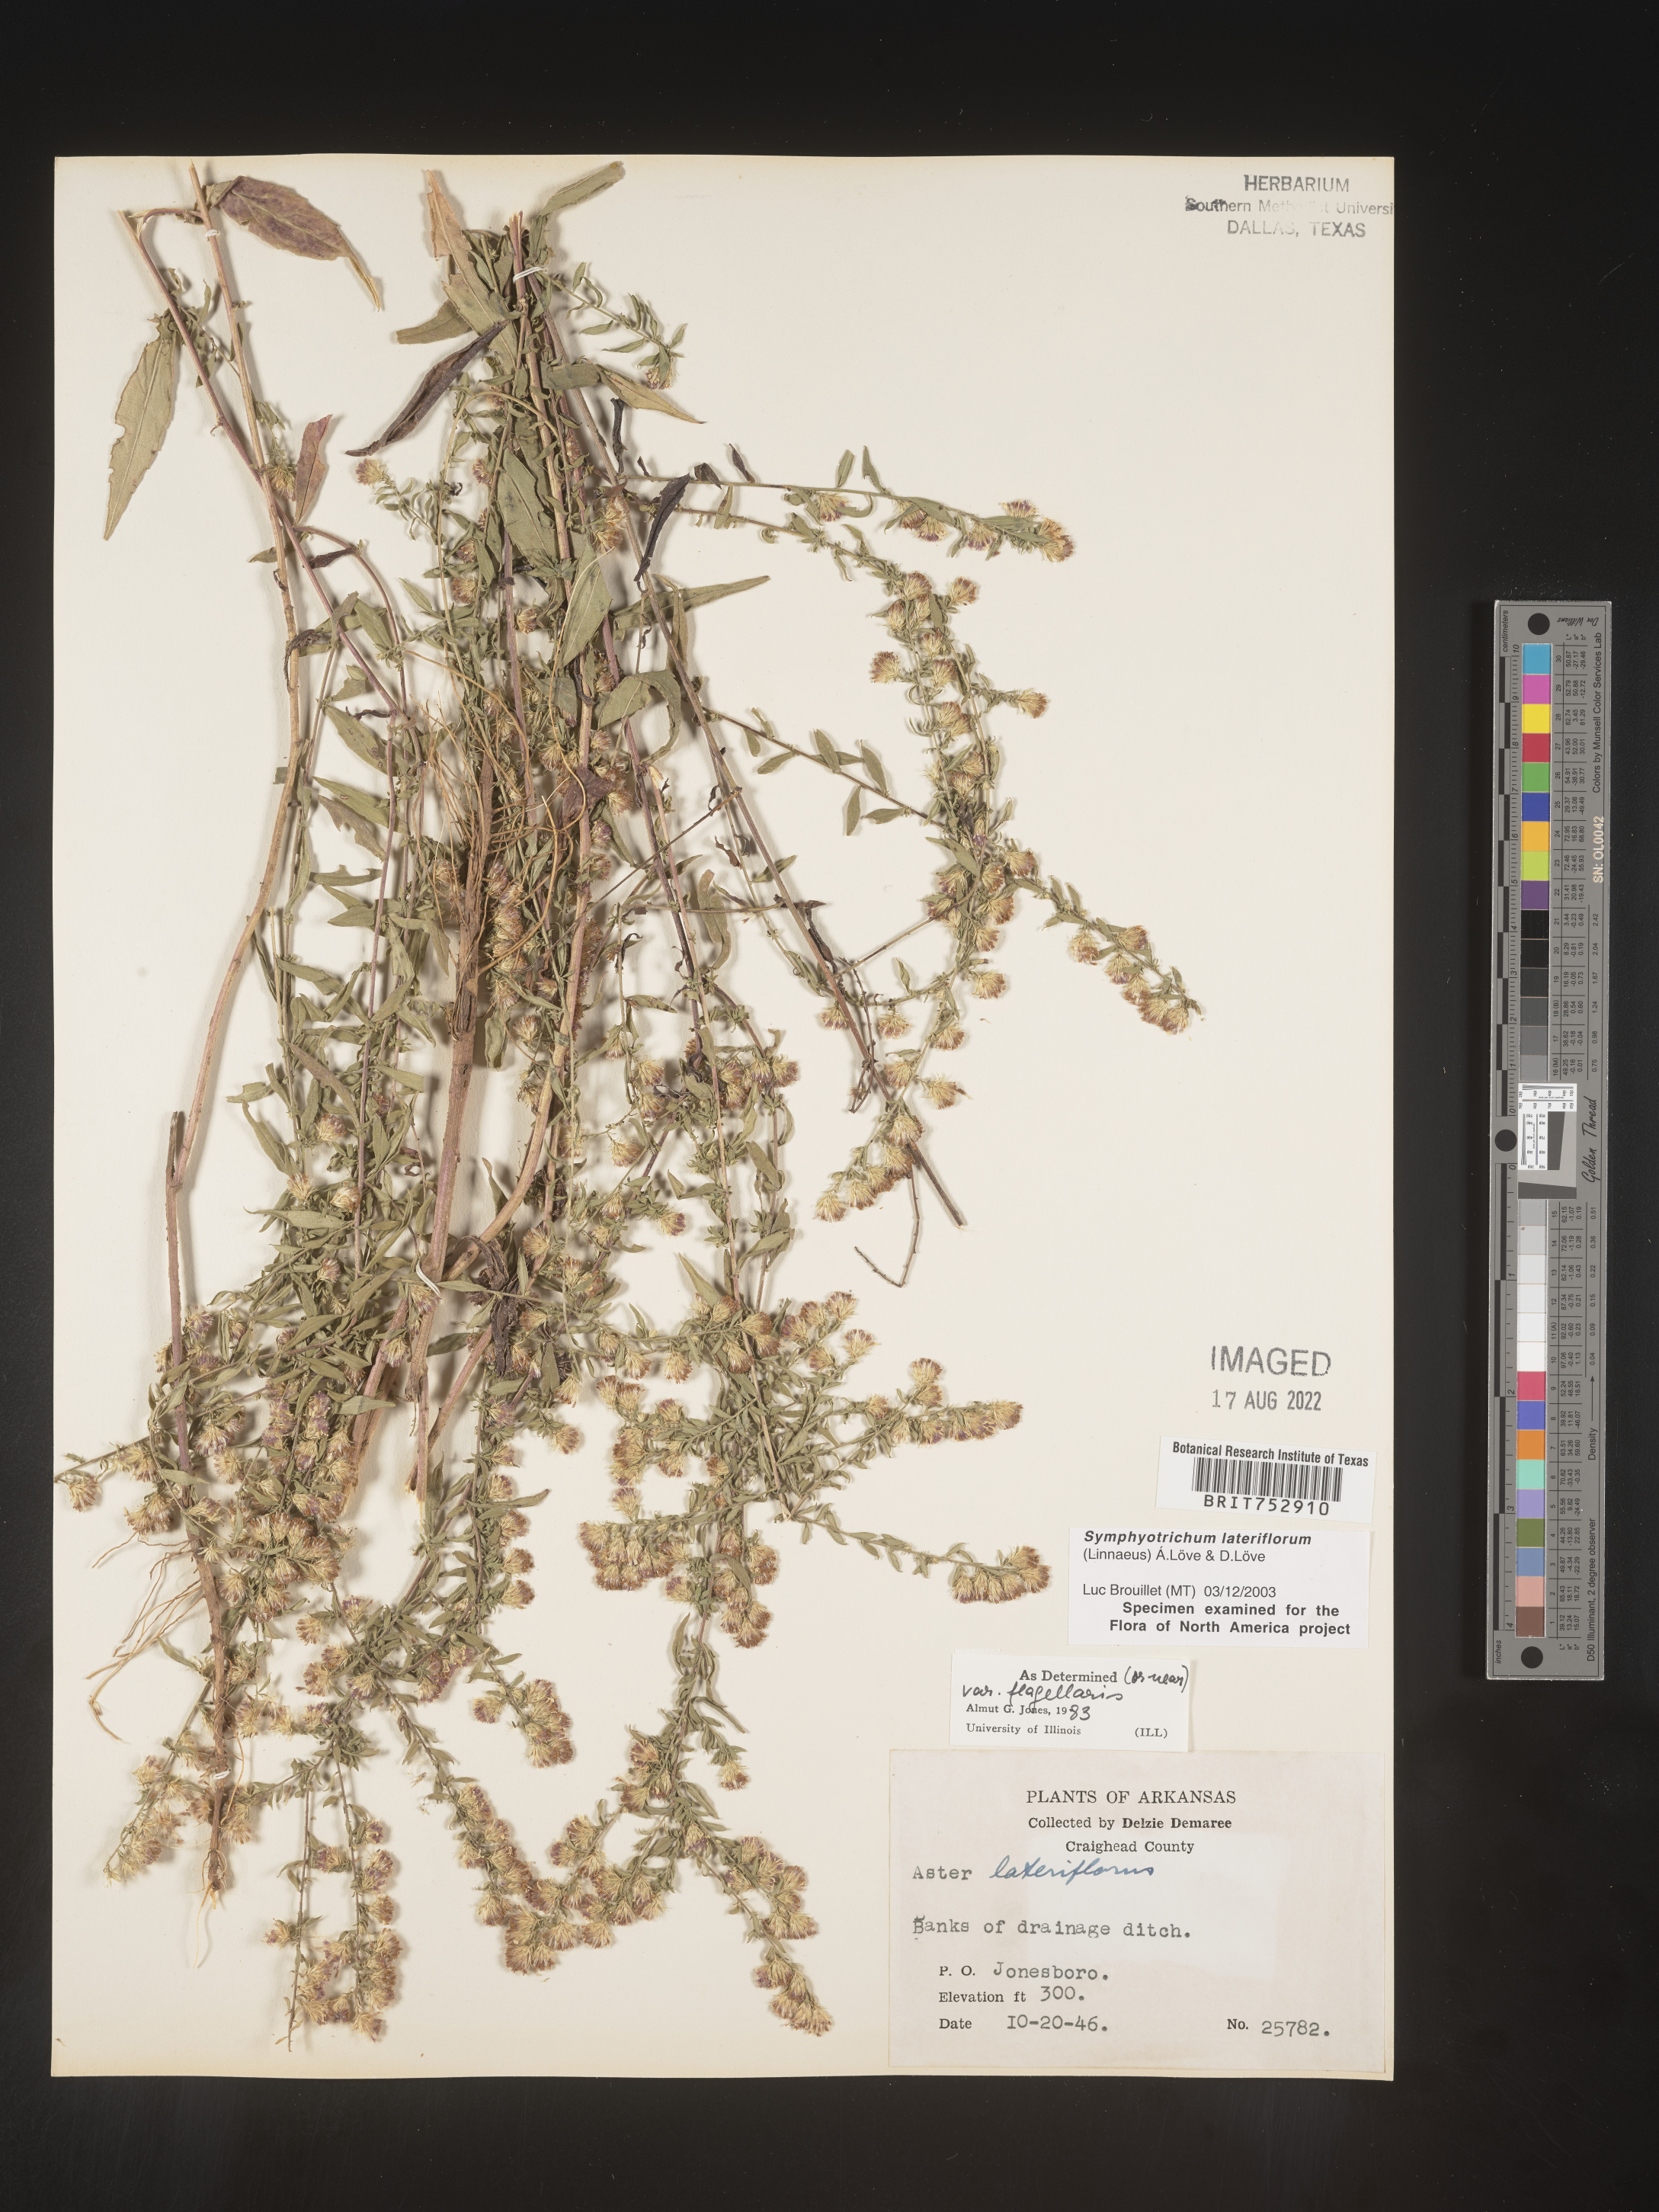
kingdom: Plantae
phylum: Tracheophyta
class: Magnoliopsida
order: Asterales
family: Asteraceae
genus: Symphyotrichum
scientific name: Symphyotrichum lateriflorum
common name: Calico aster
